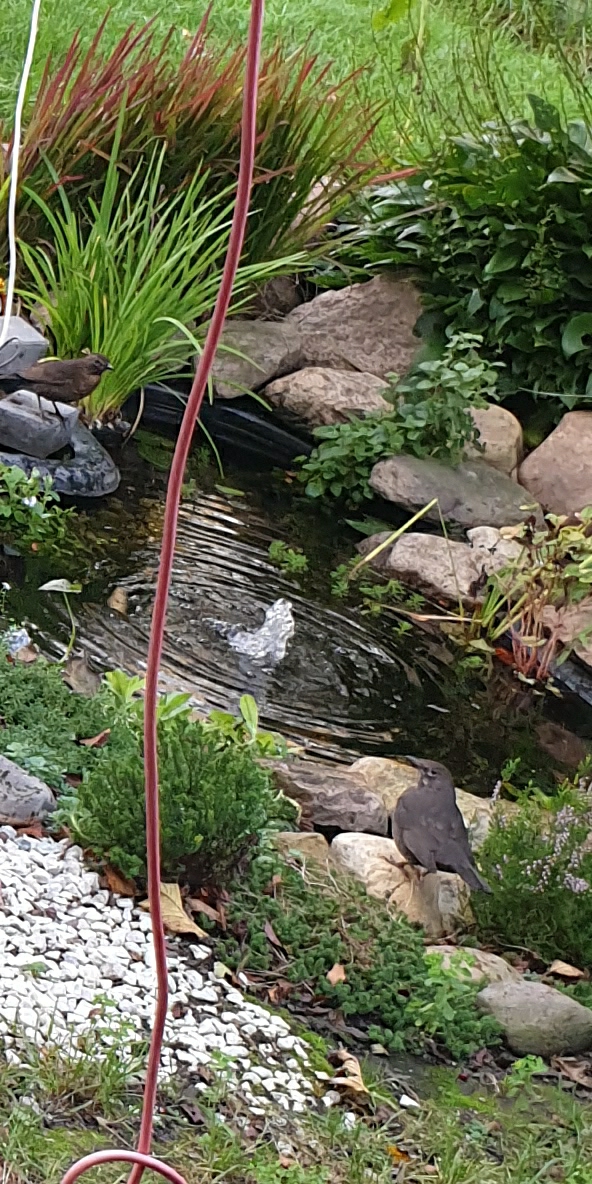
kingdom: Animalia
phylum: Chordata
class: Aves
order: Passeriformes
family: Turdidae
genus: Turdus
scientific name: Turdus merula
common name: Solsort
